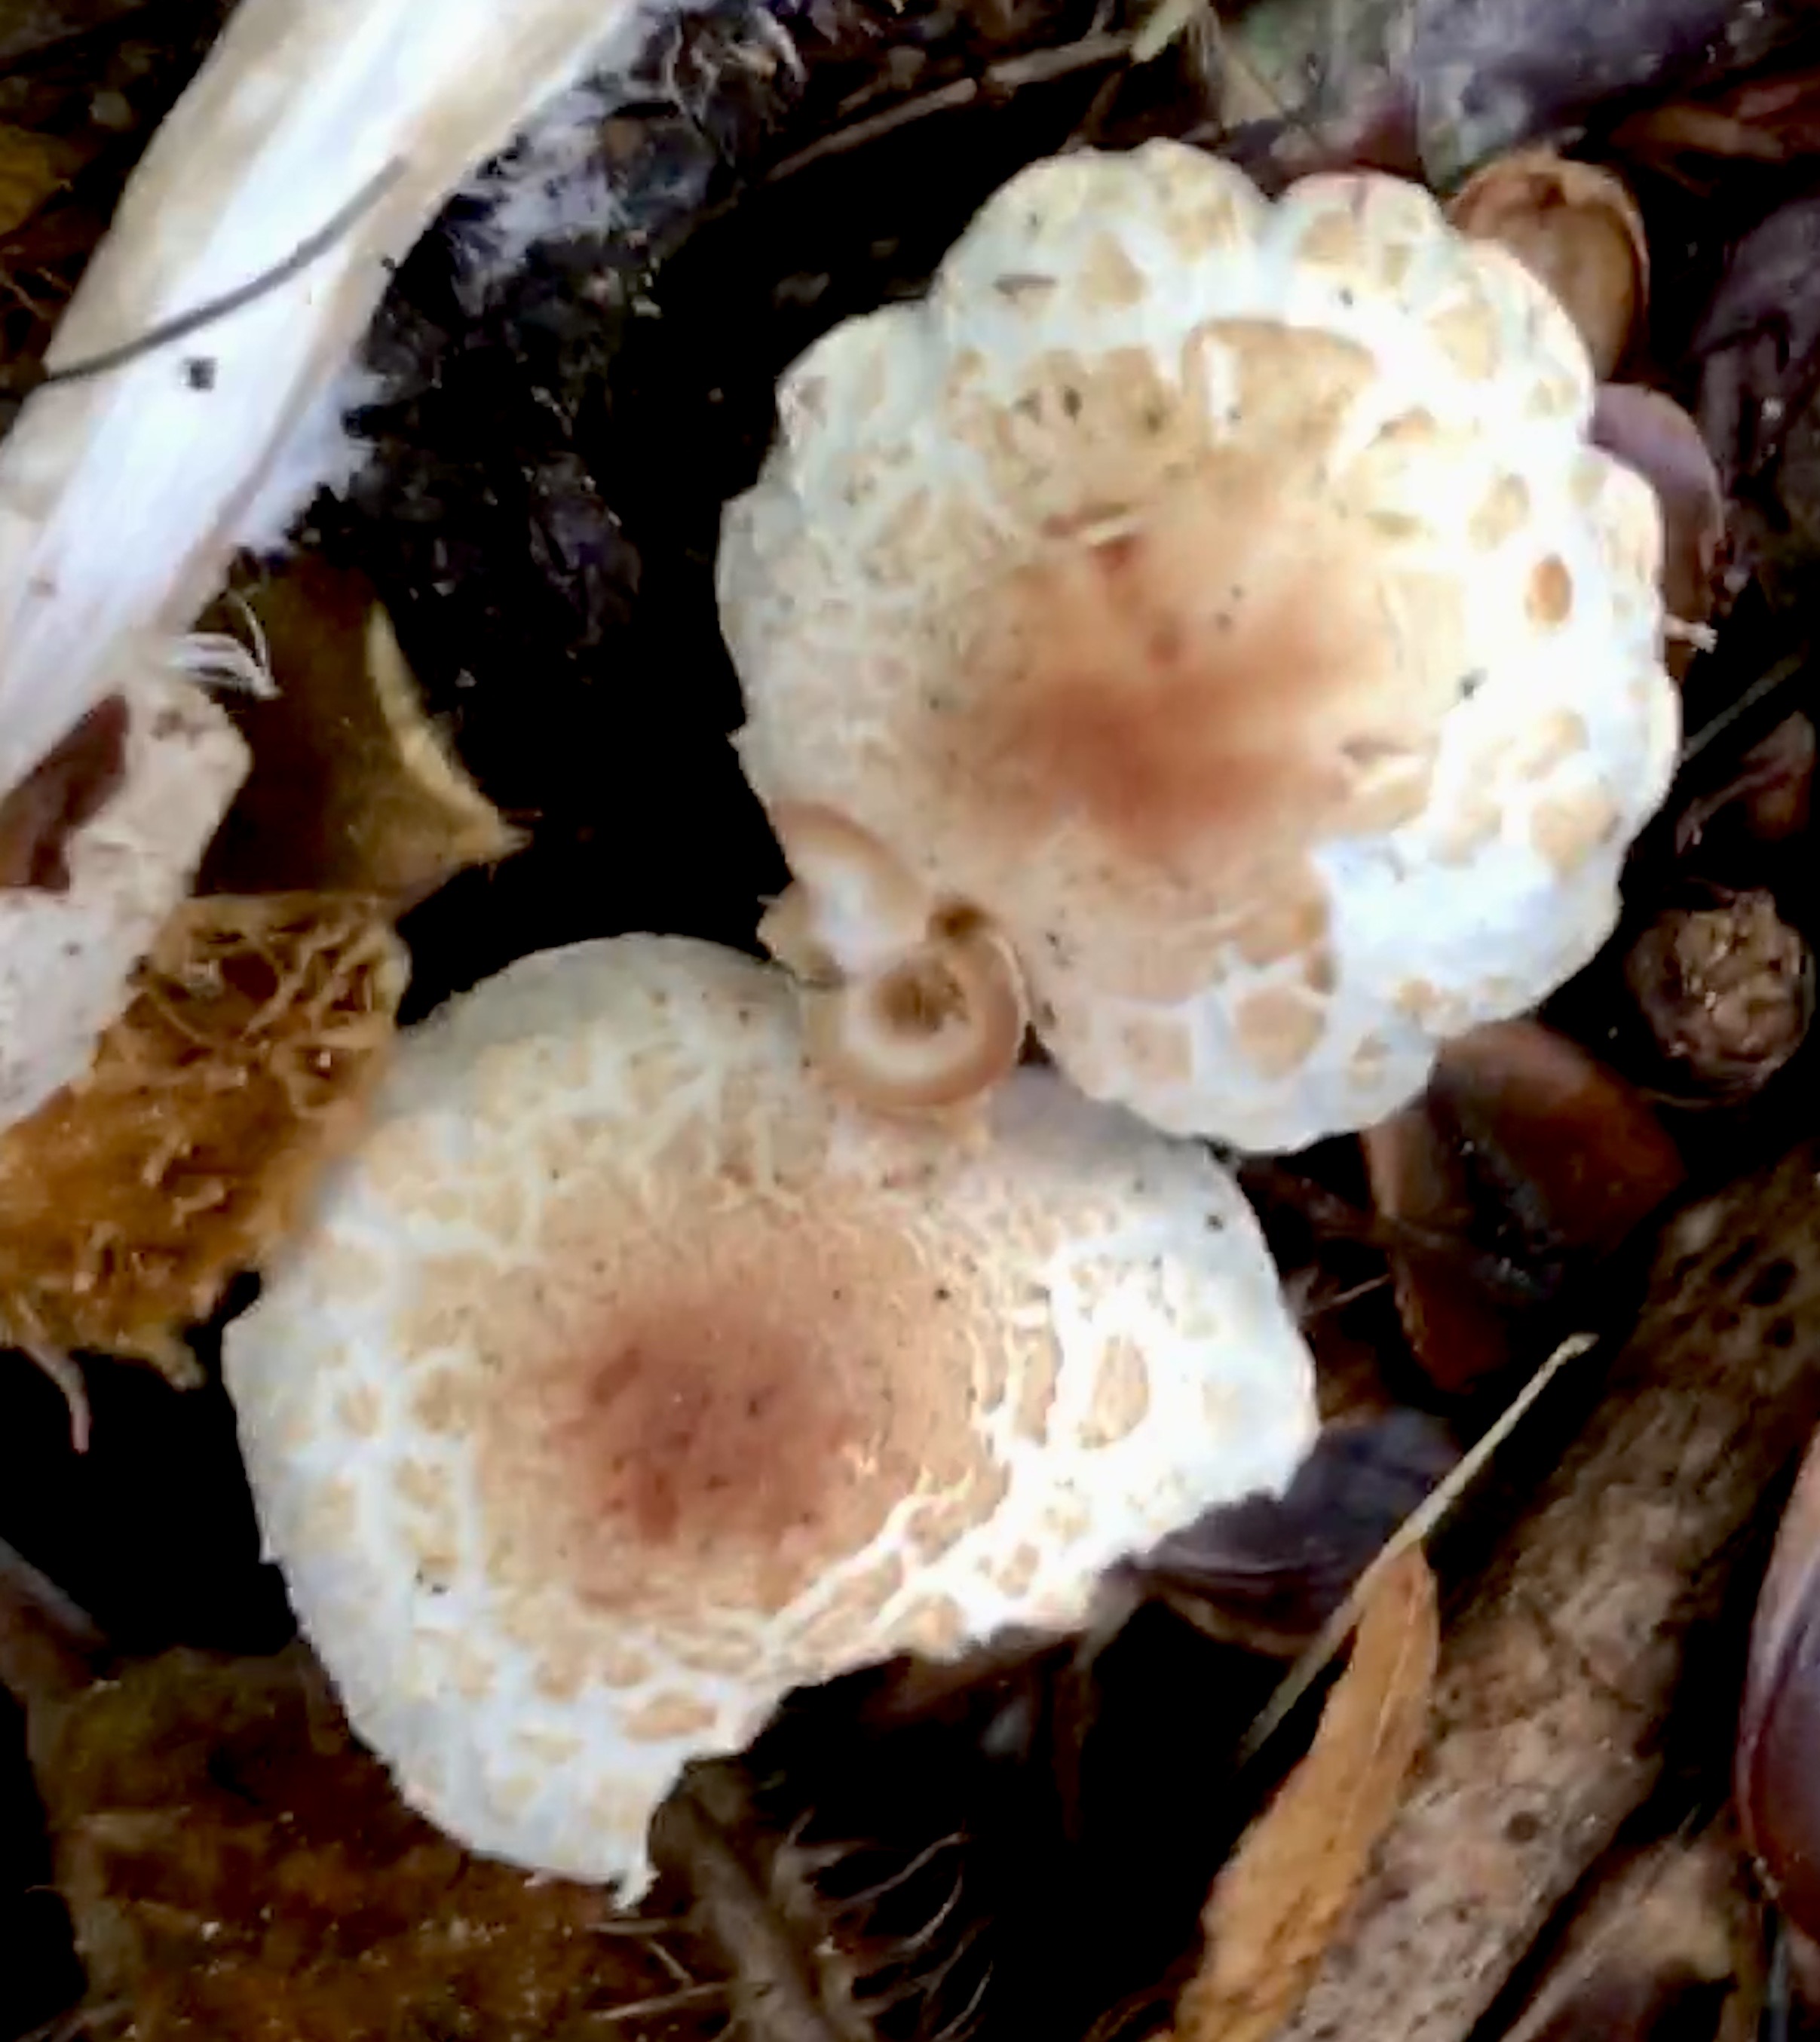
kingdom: Fungi
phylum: Basidiomycota
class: Agaricomycetes
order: Agaricales
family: Agaricaceae
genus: Lepiota
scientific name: Lepiota cristata
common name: stinkende parasolhat
